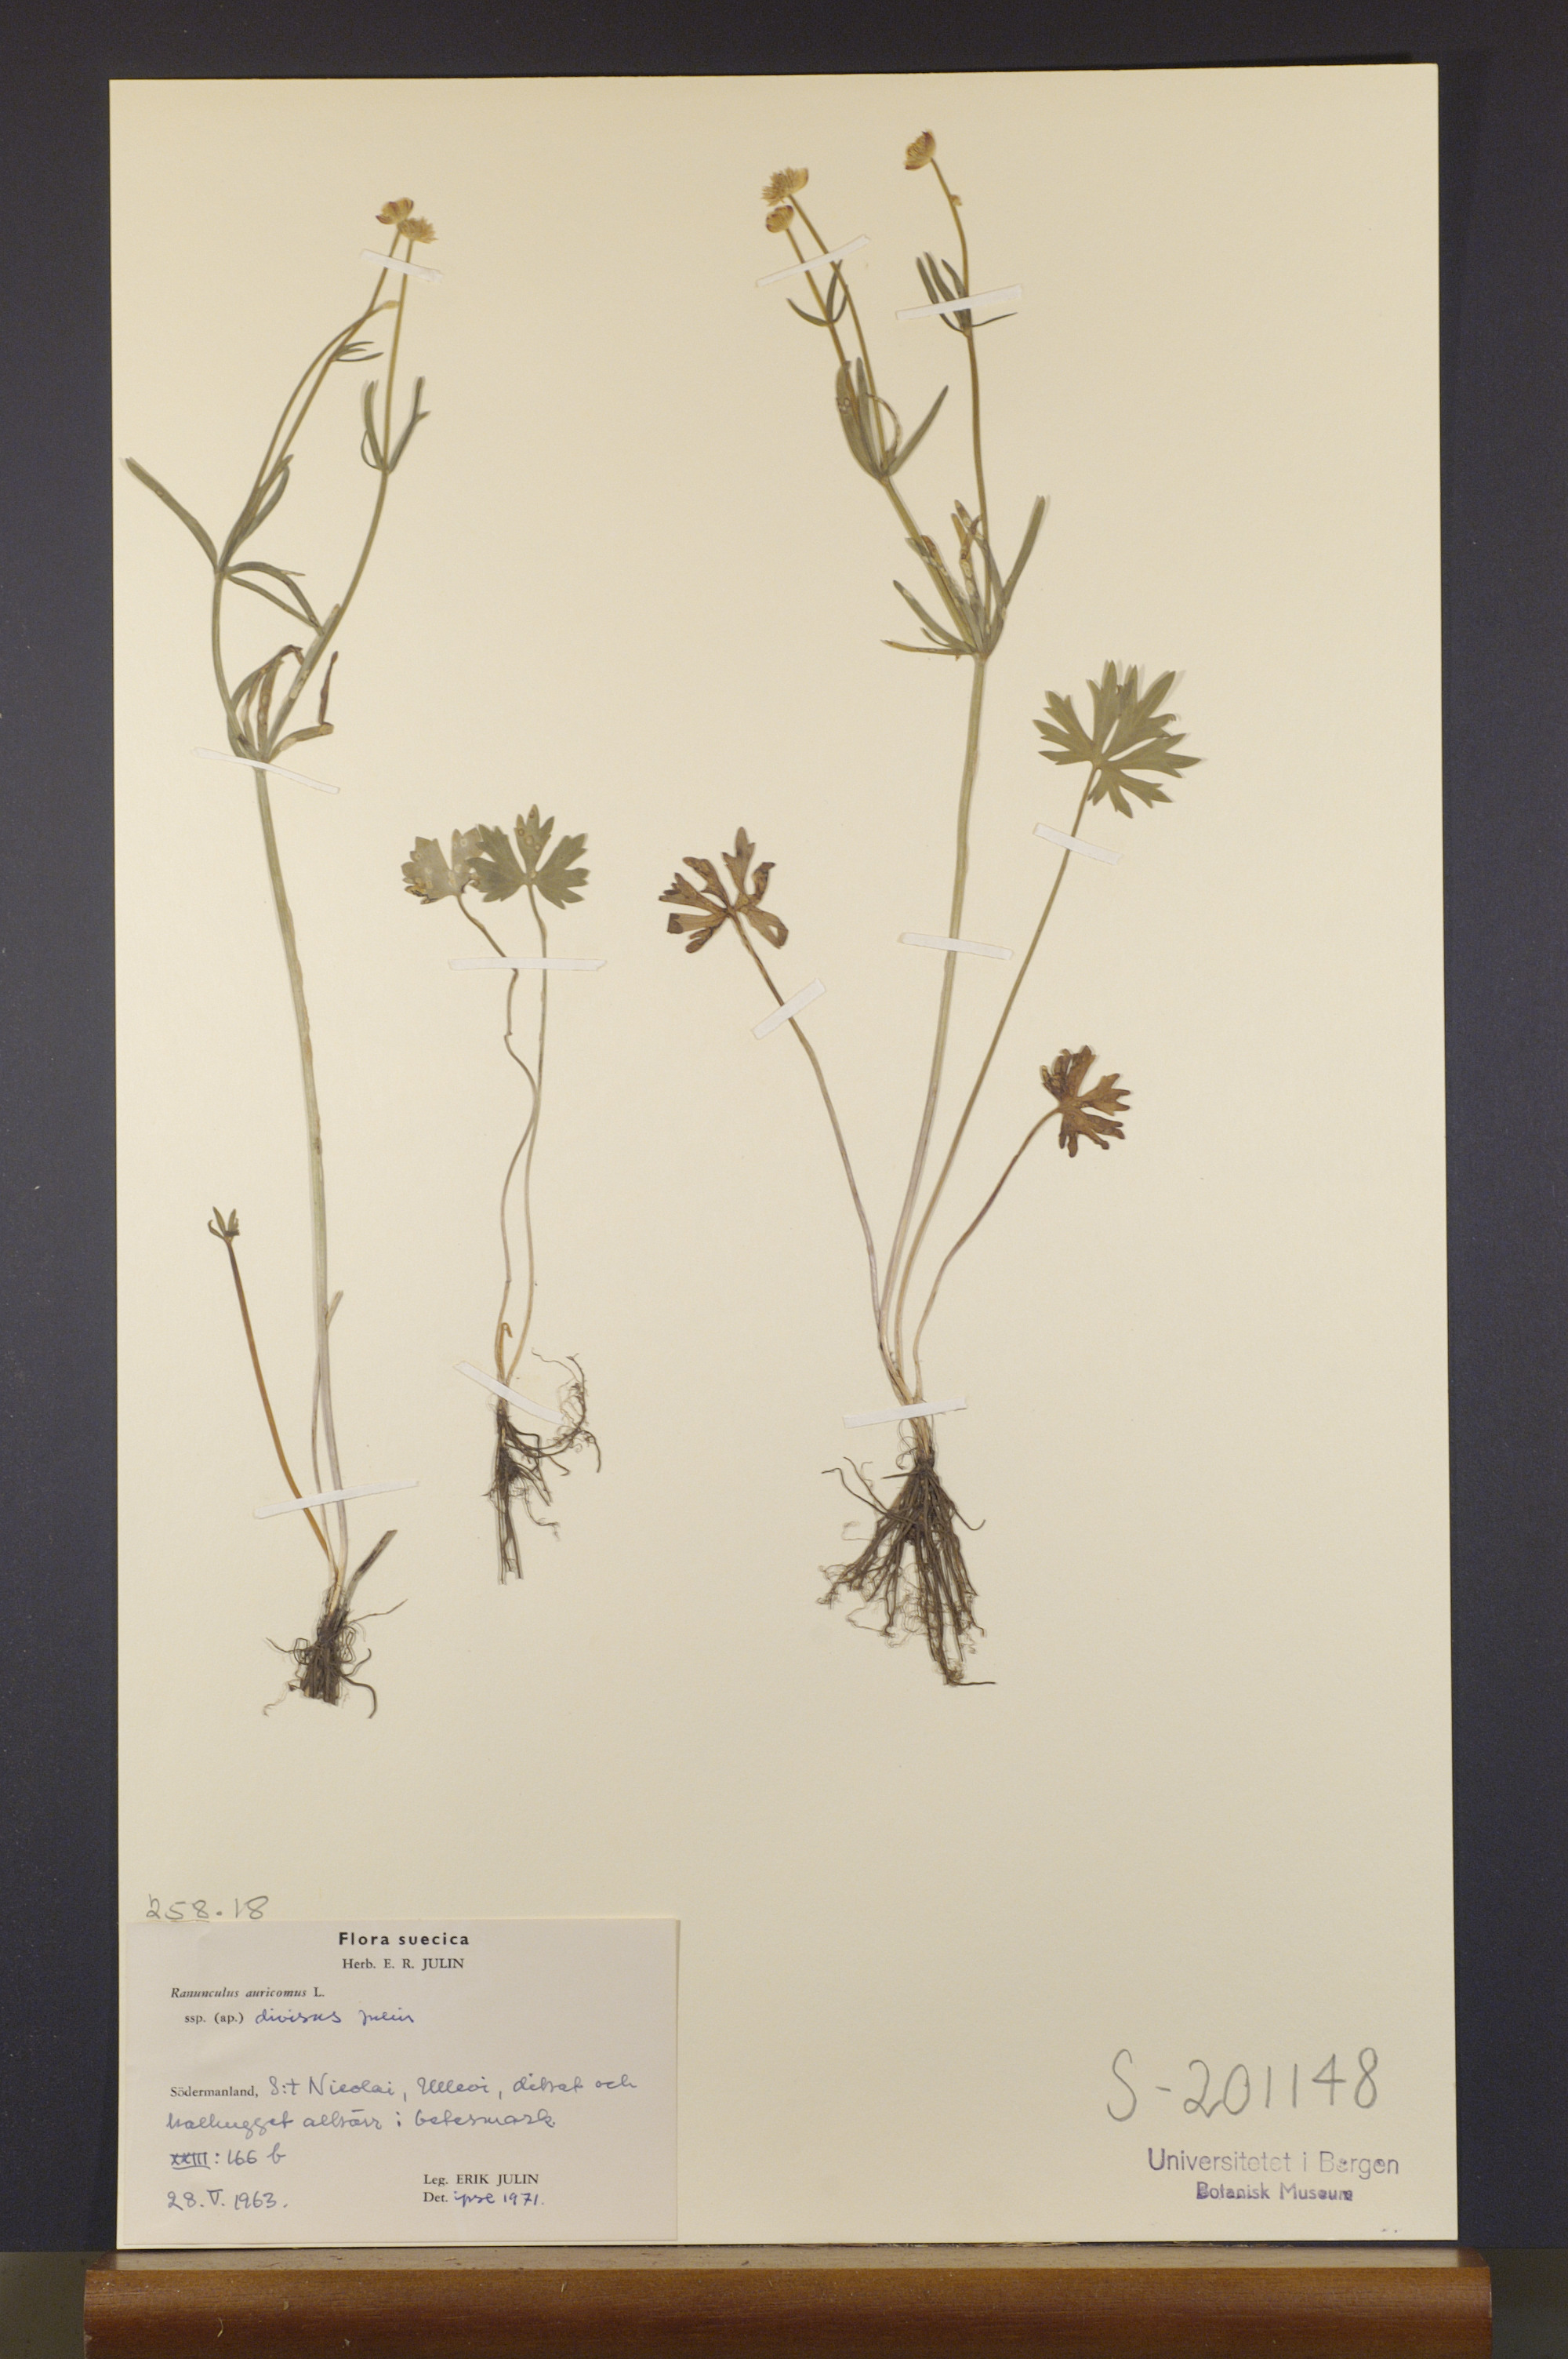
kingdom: Plantae
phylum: Tracheophyta
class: Magnoliopsida
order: Ranunculales
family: Ranunculaceae
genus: Ranunculus
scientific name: Ranunculus auricomus
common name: Goldilocks buttercup
